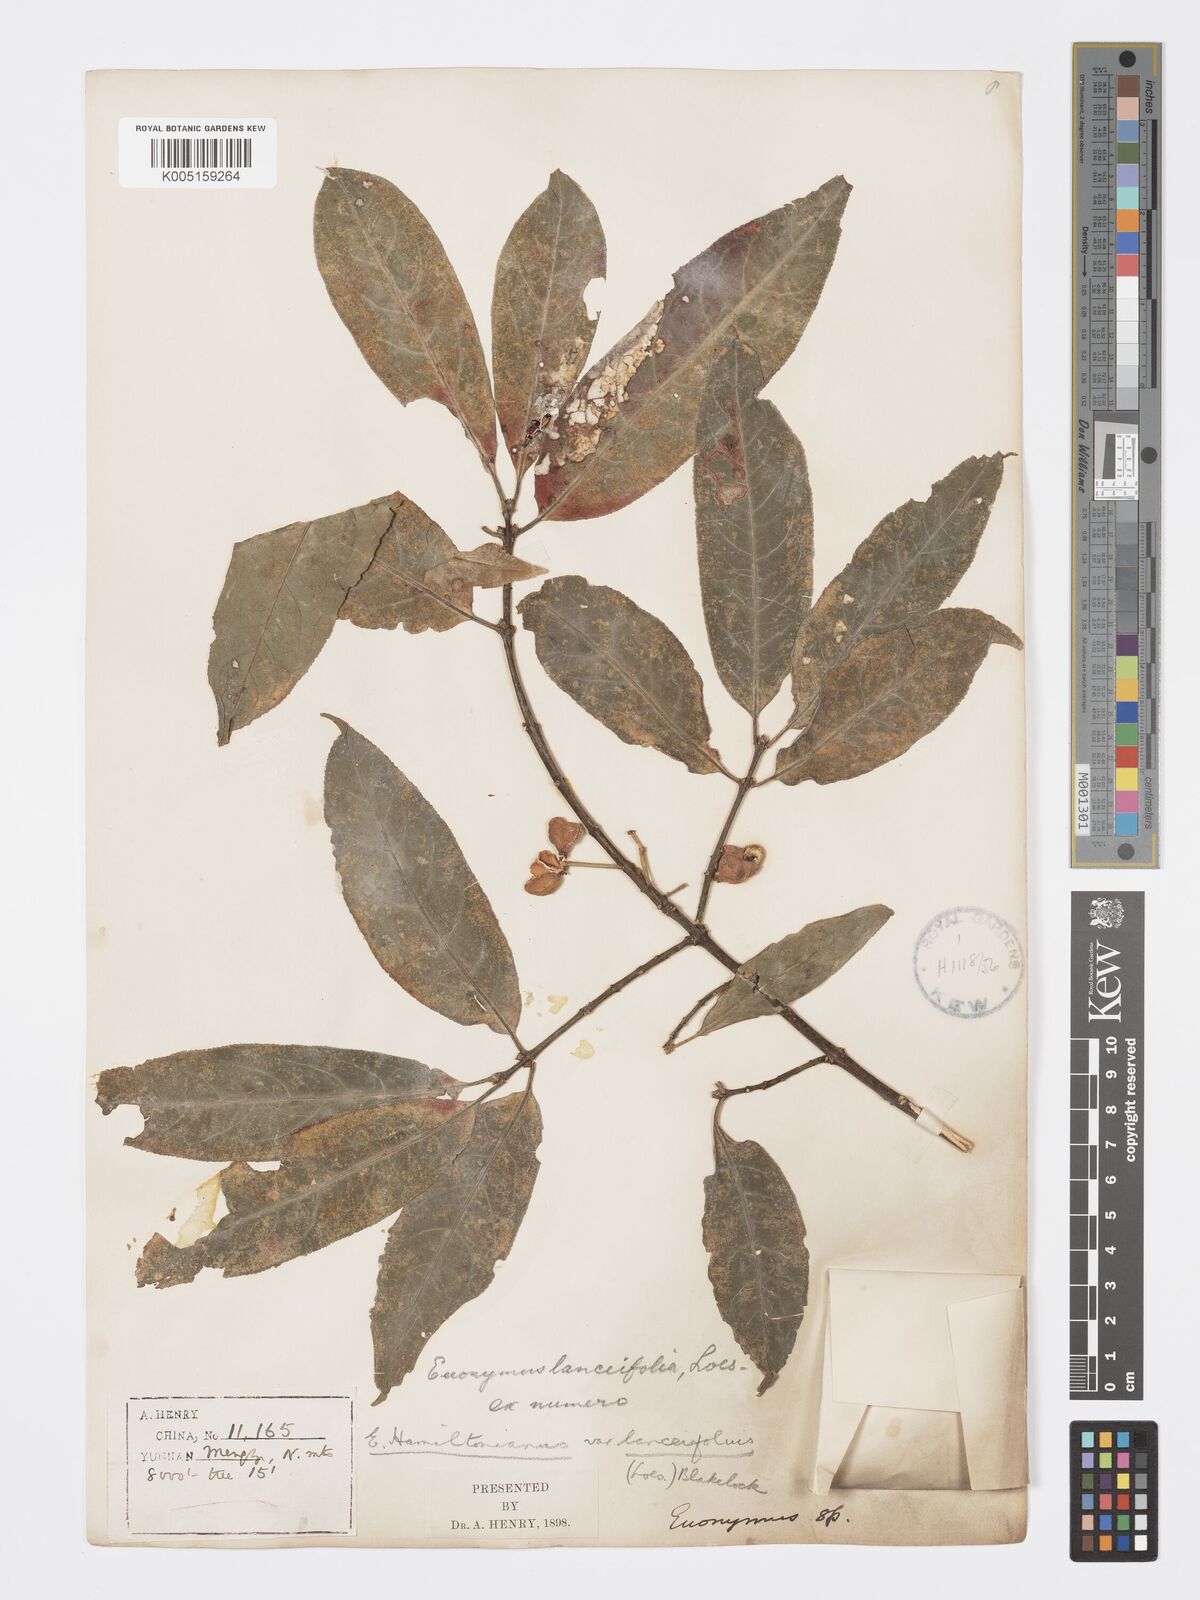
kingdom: Plantae
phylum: Tracheophyta
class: Magnoliopsida
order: Celastrales
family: Celastraceae
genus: Euonymus
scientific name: Euonymus hamiltonianus
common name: Hamilton's spindletree
